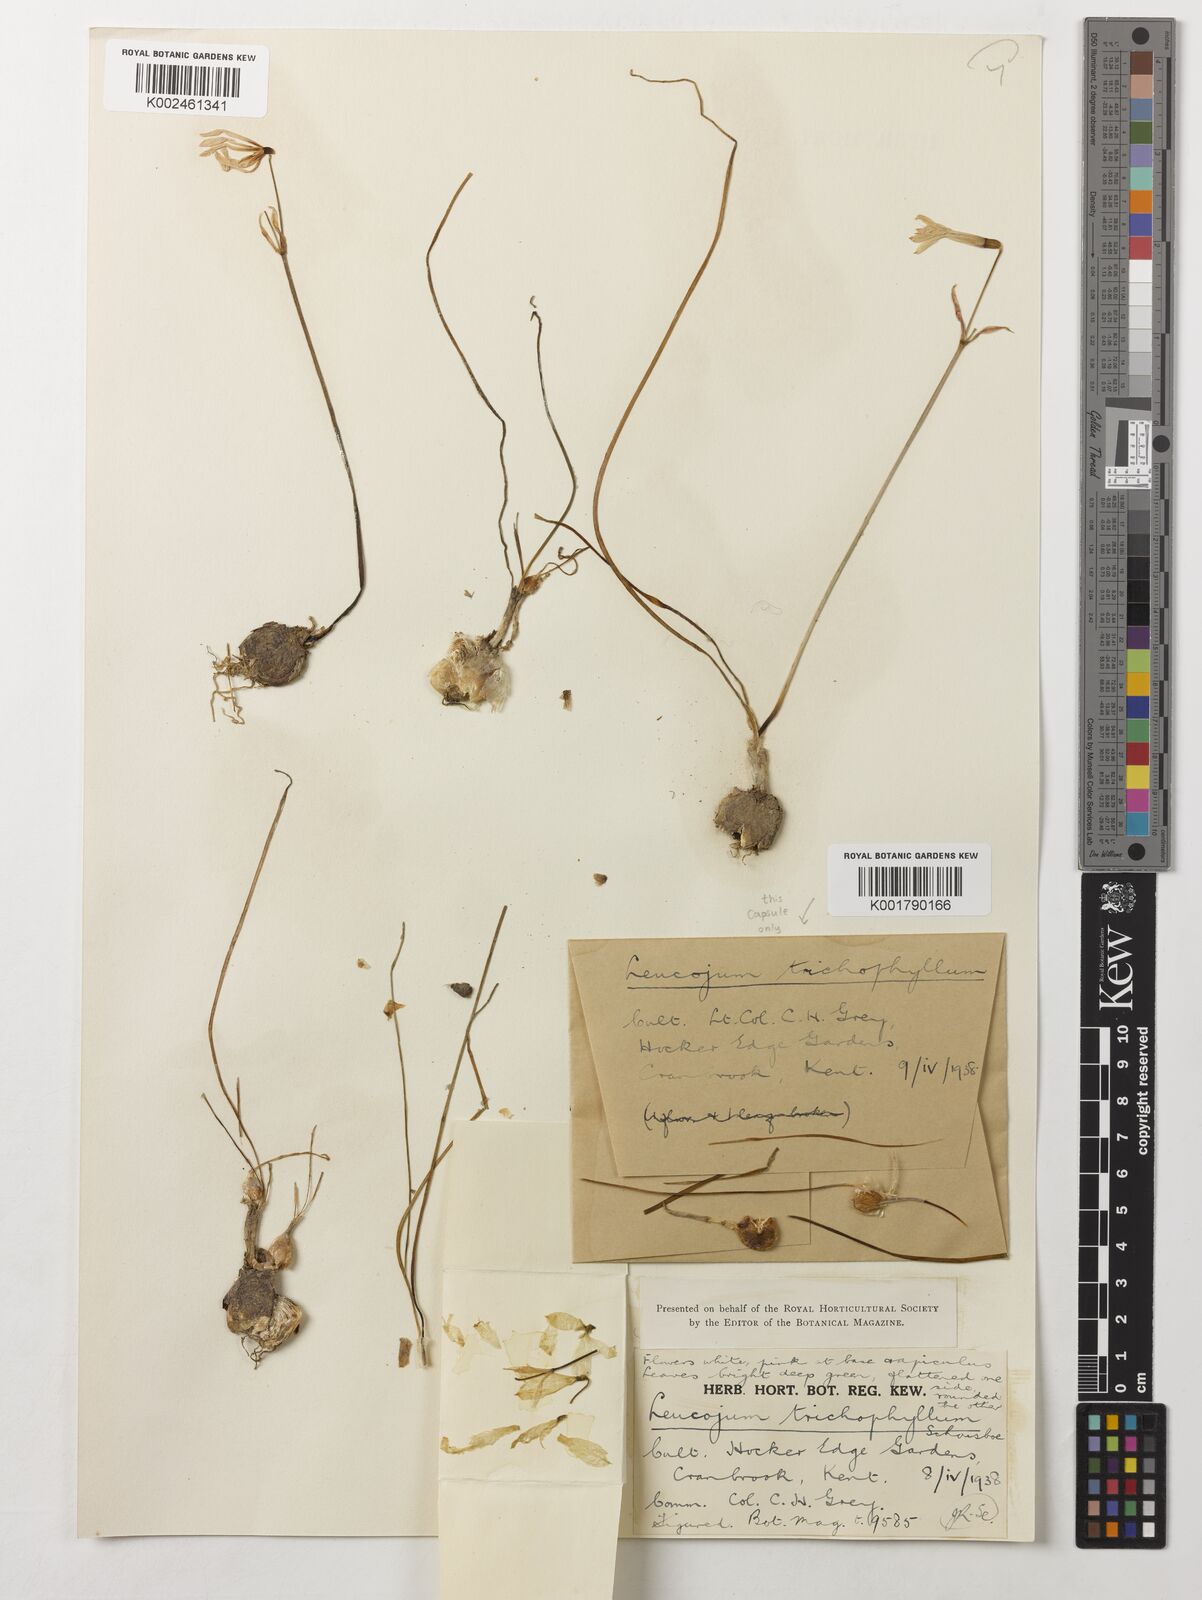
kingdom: Plantae
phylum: Tracheophyta
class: Liliopsida
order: Asparagales
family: Amaryllidaceae
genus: Acis
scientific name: Acis trichophylla
